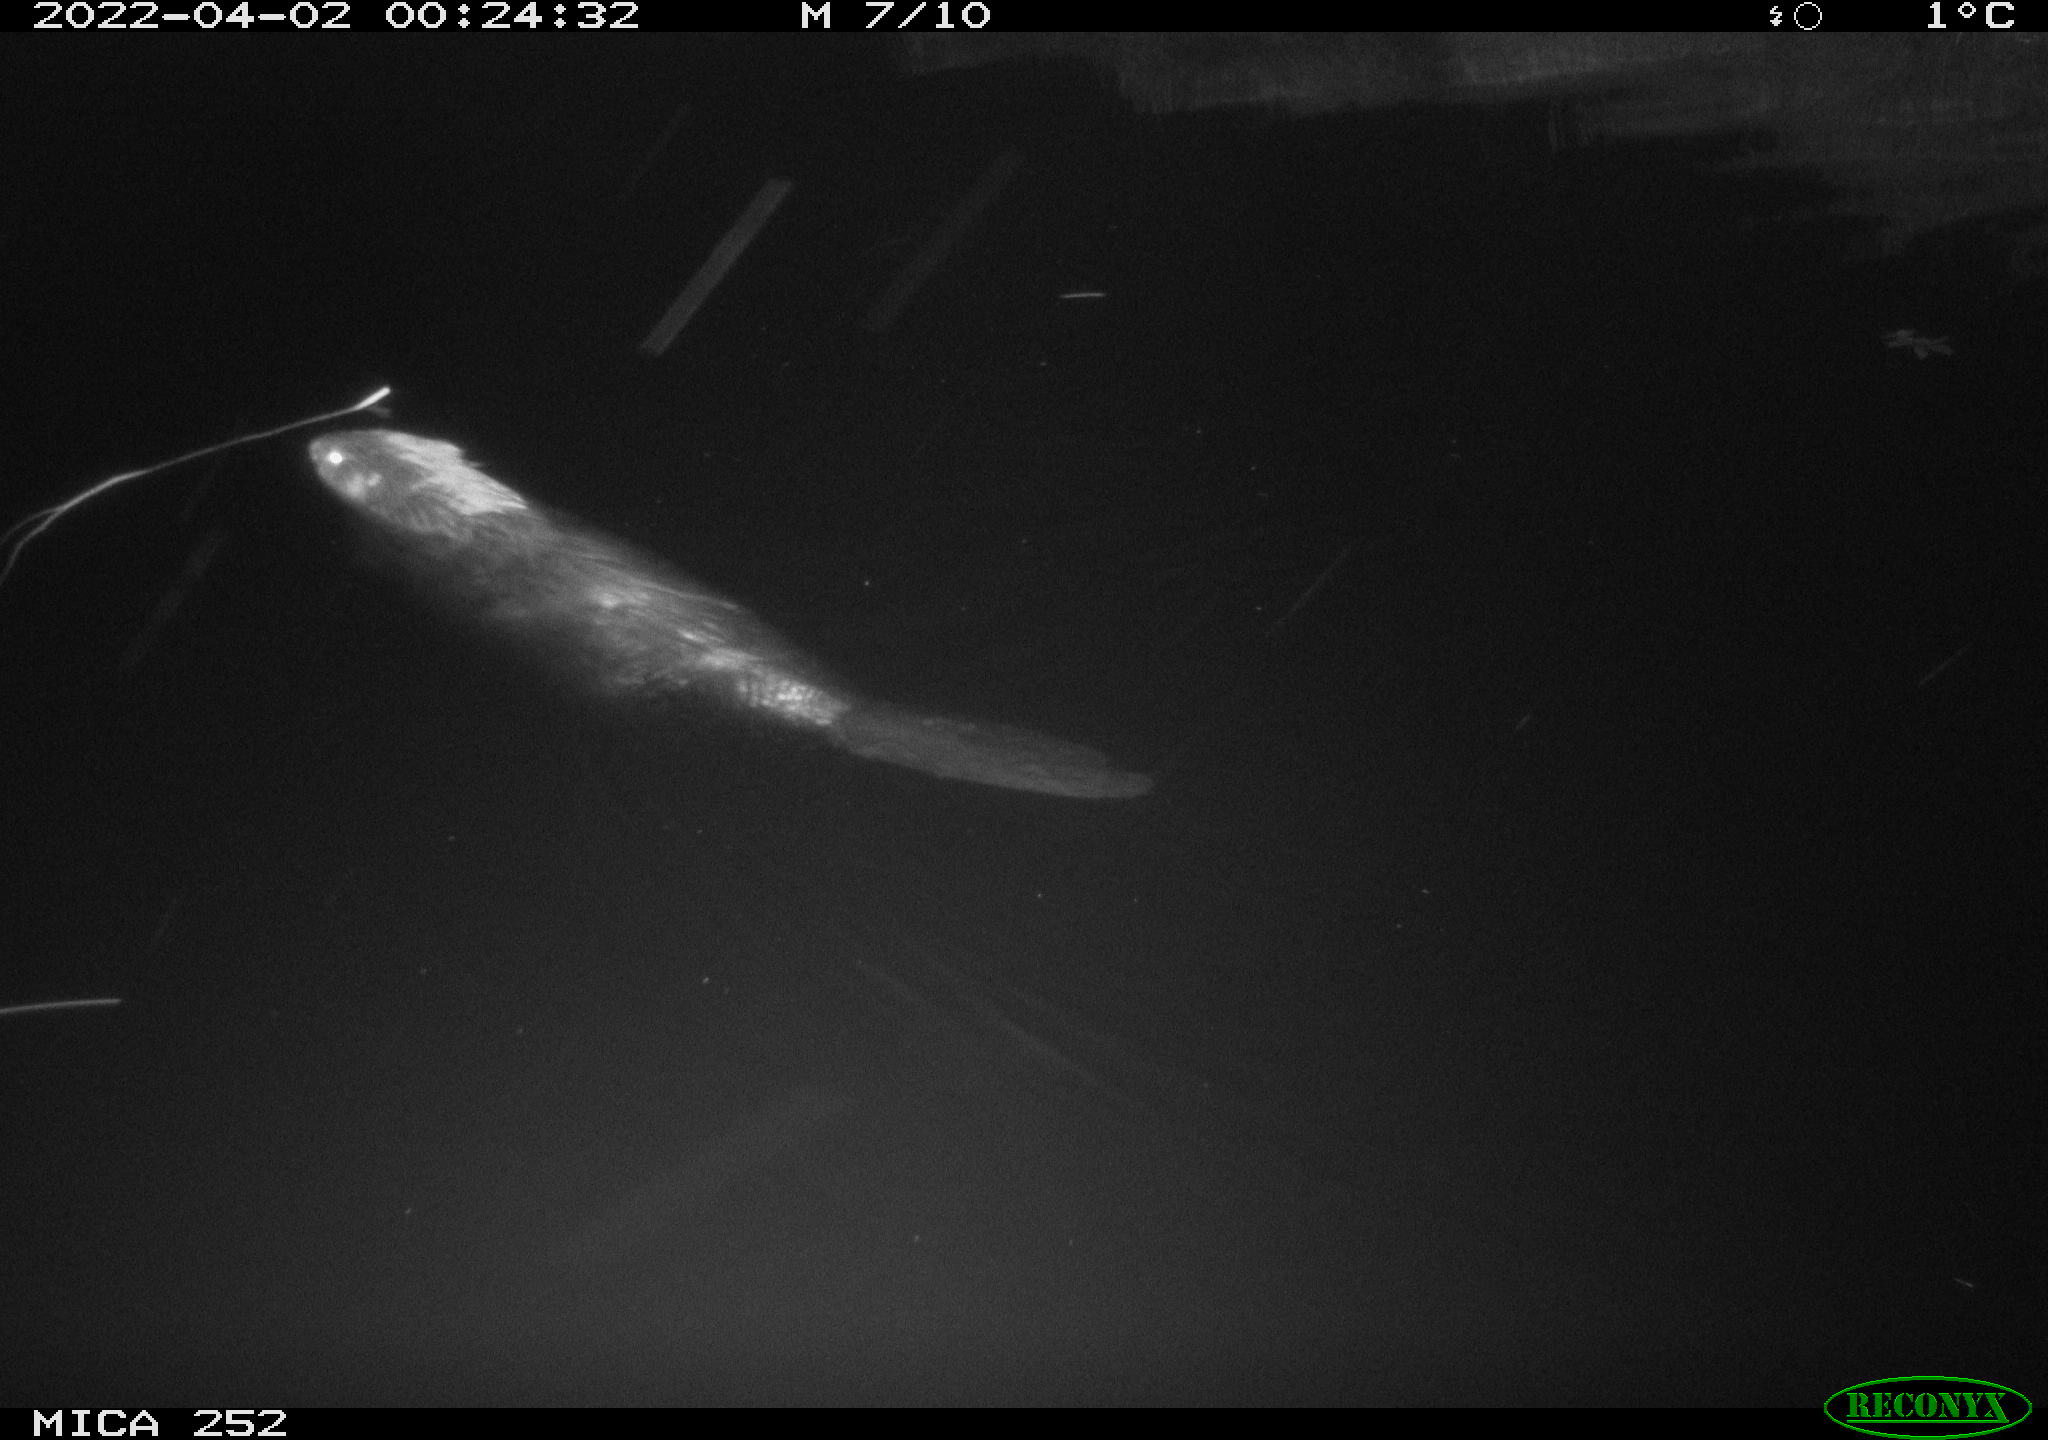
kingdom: Animalia
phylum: Chordata
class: Mammalia
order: Rodentia
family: Castoridae
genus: Castor
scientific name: Castor fiber
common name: Eurasian beaver
